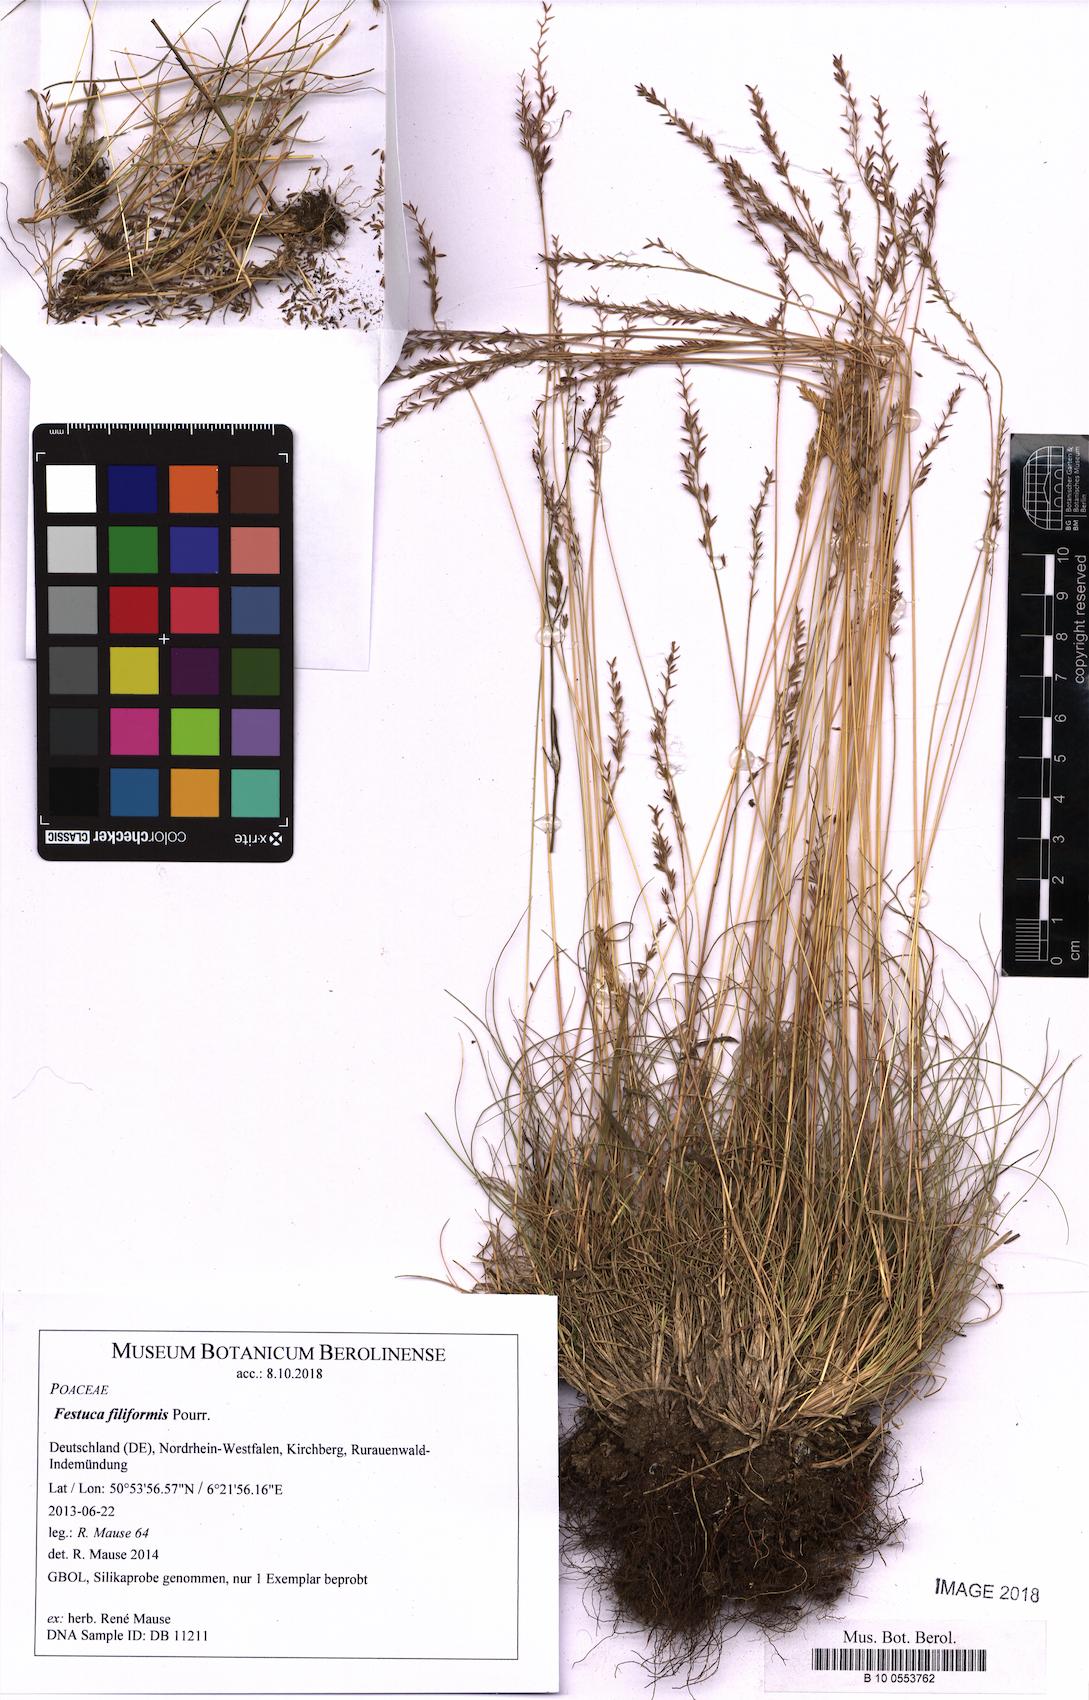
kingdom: Plantae
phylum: Tracheophyta
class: Liliopsida
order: Poales
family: Poaceae
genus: Festuca
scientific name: Festuca filiformis
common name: Fine-leaved sheep's-fescue
